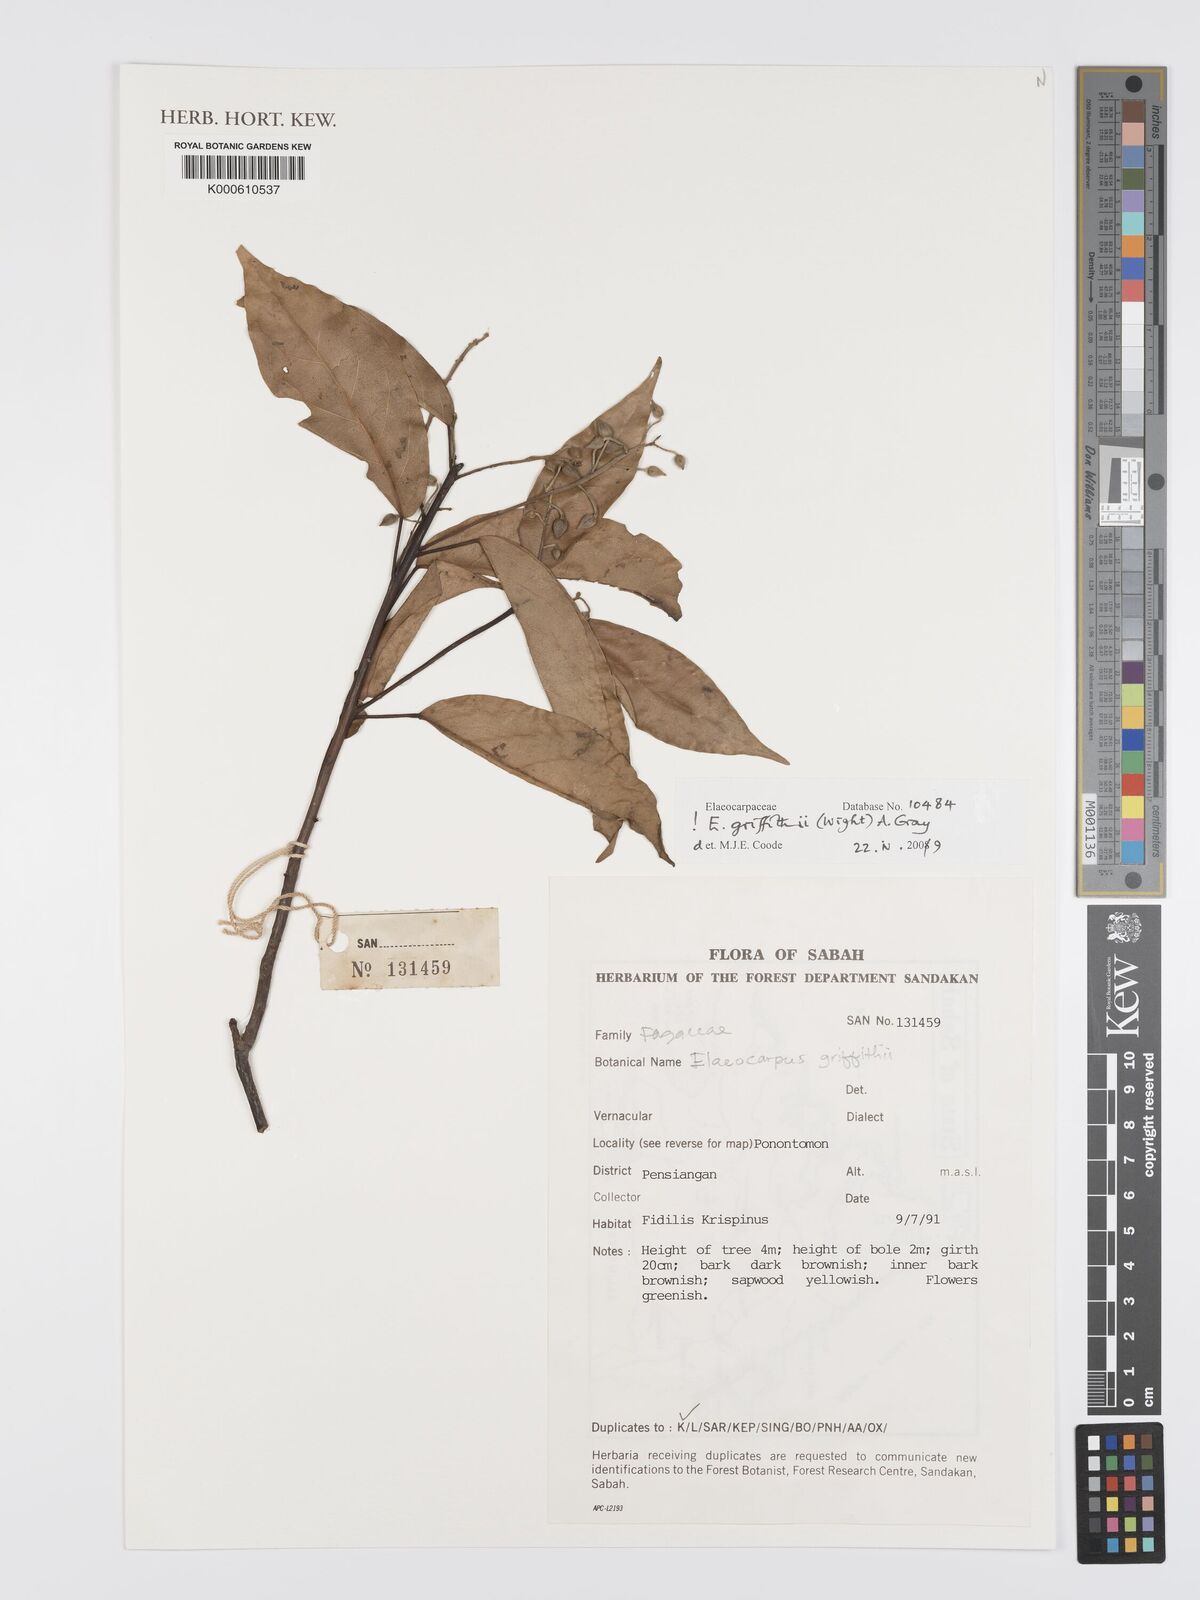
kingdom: Plantae
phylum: Tracheophyta
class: Magnoliopsida
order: Oxalidales
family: Elaeocarpaceae
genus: Elaeocarpus
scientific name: Elaeocarpus
